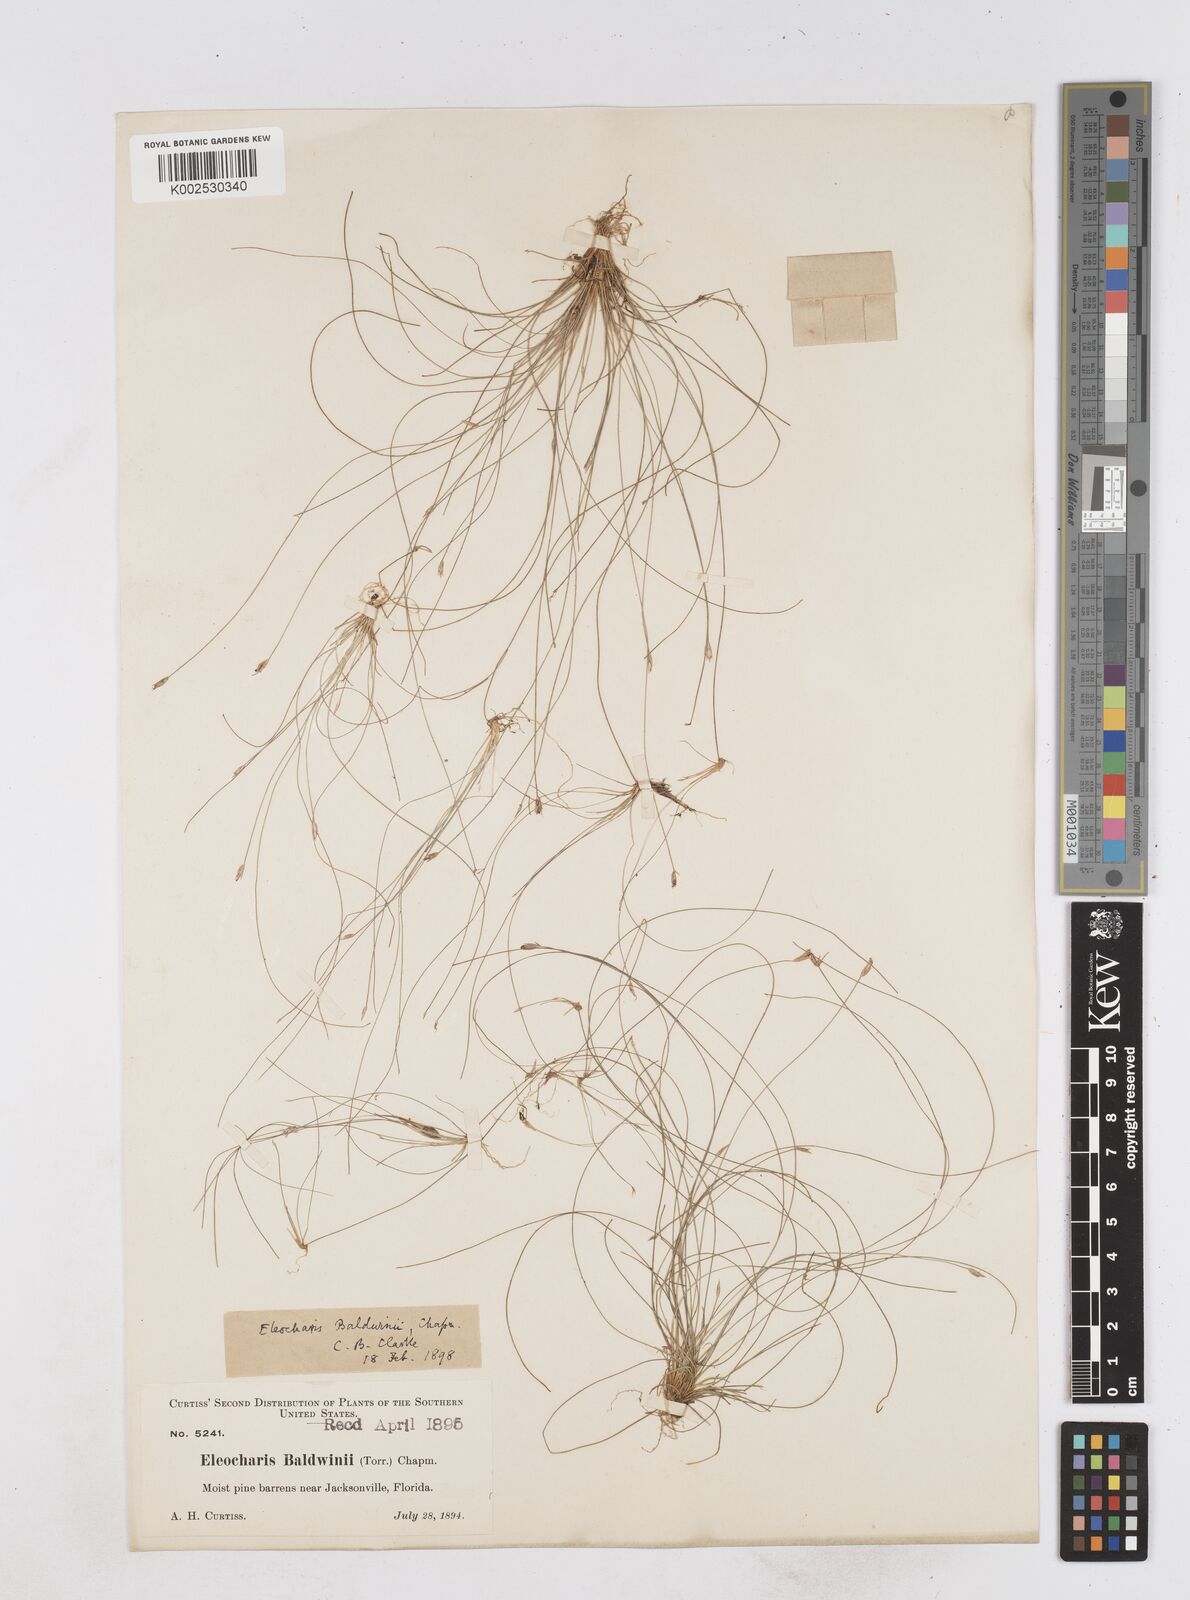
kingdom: Plantae
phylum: Tracheophyta
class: Liliopsida
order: Poales
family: Cyperaceae
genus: Eleocharis
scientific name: Eleocharis baldwinii
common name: Baldwin's spike-rush
